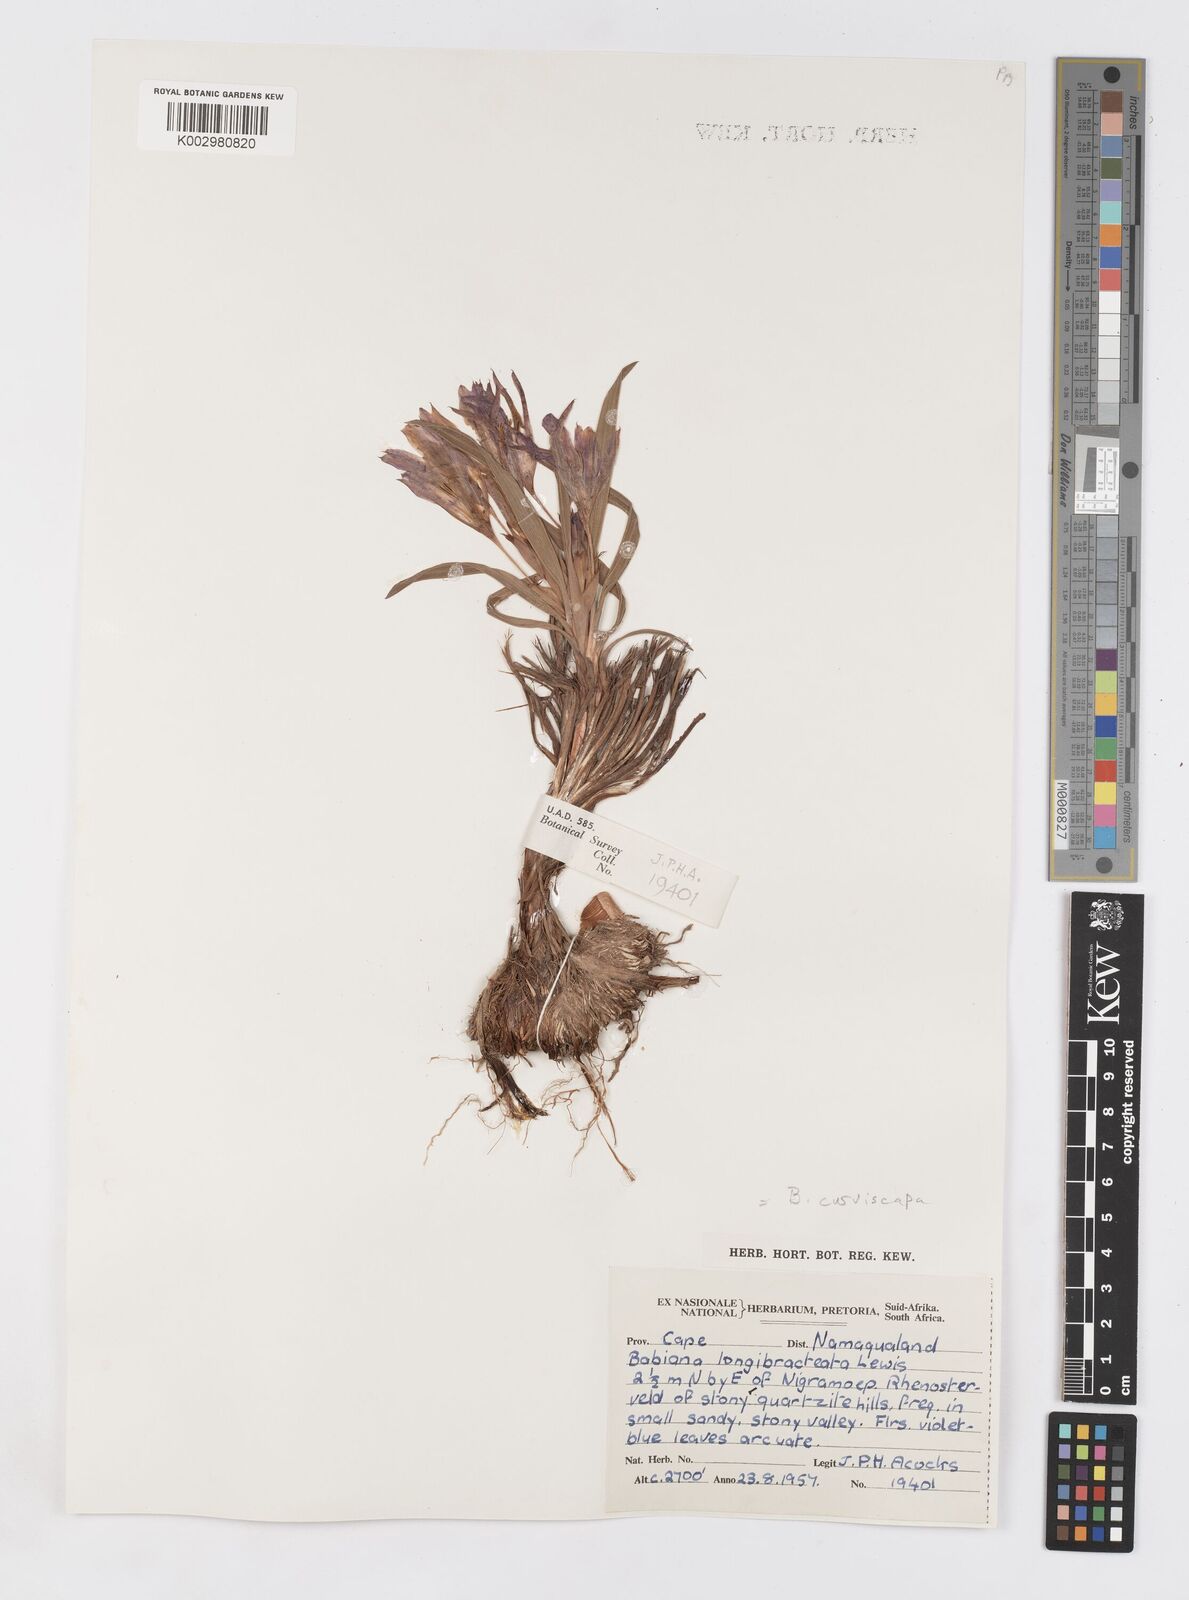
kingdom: Plantae
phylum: Tracheophyta
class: Liliopsida
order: Asparagales
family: Iridaceae
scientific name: Iridaceae
